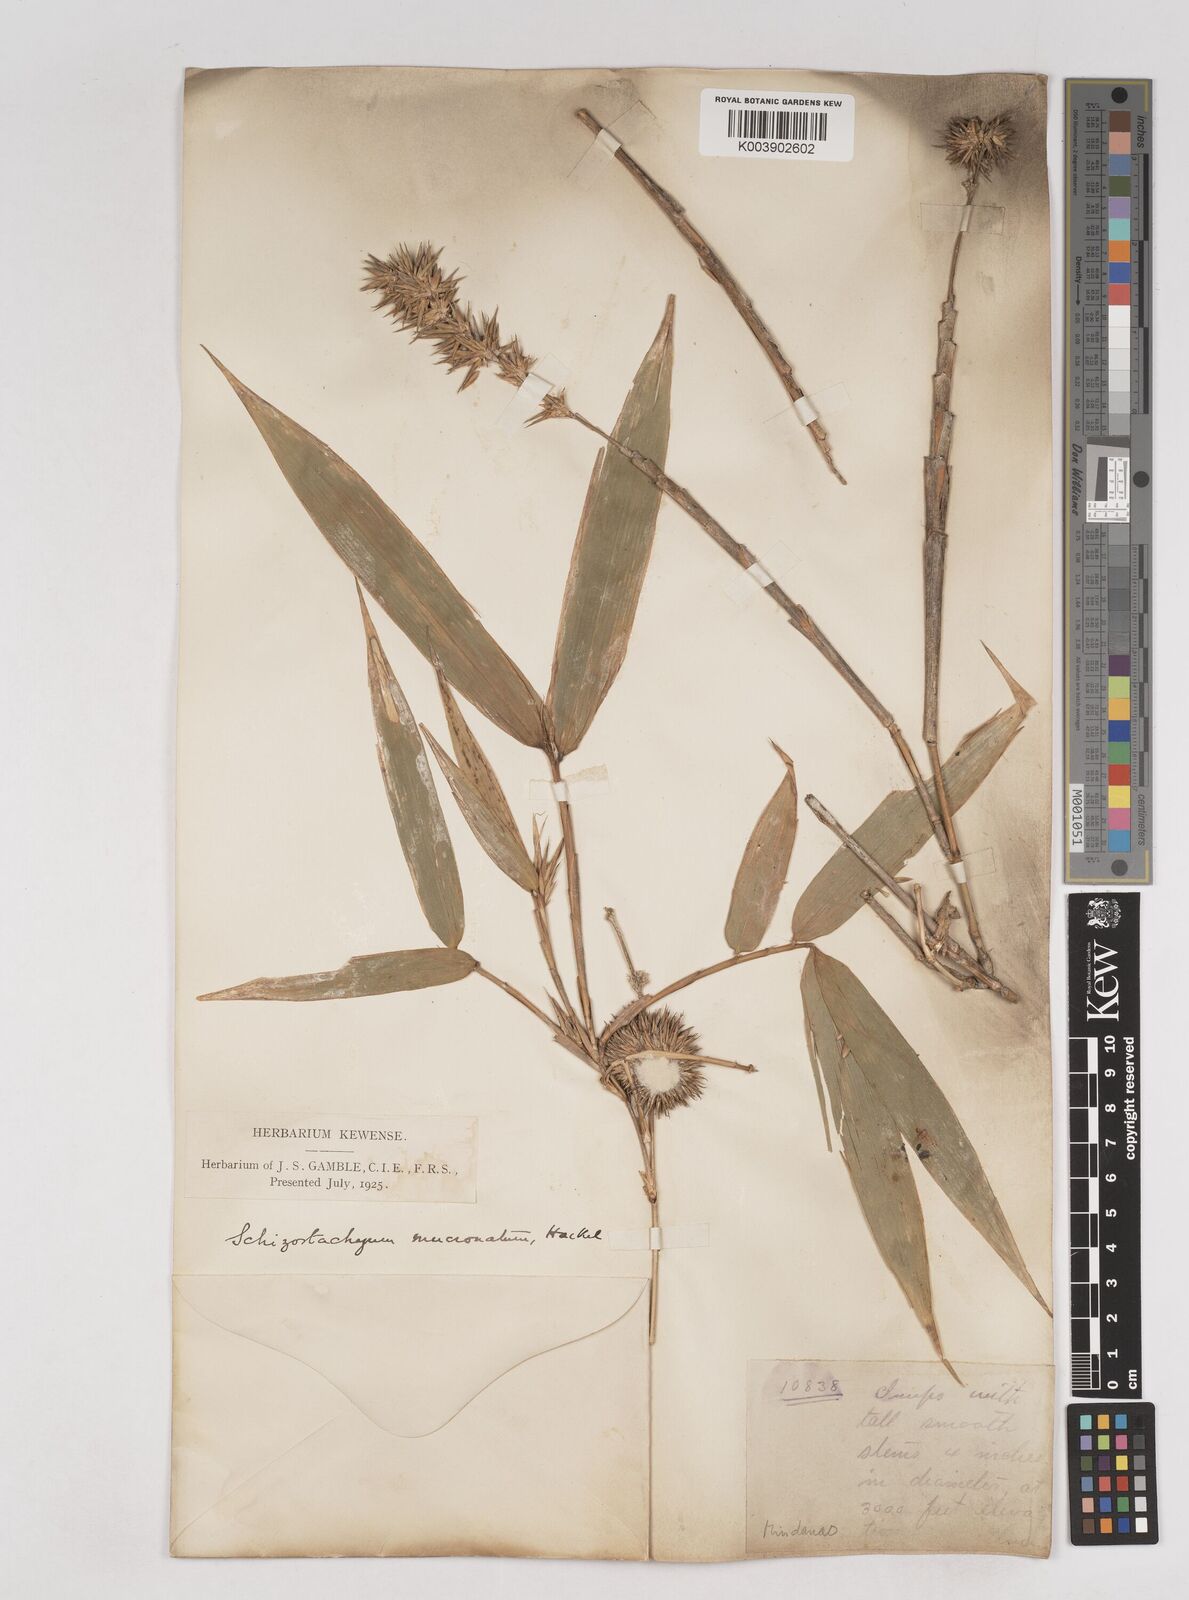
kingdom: Plantae
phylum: Tracheophyta
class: Liliopsida
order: Poales
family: Poaceae
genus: Schizostachyum
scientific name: Schizostachyum brachycladum
